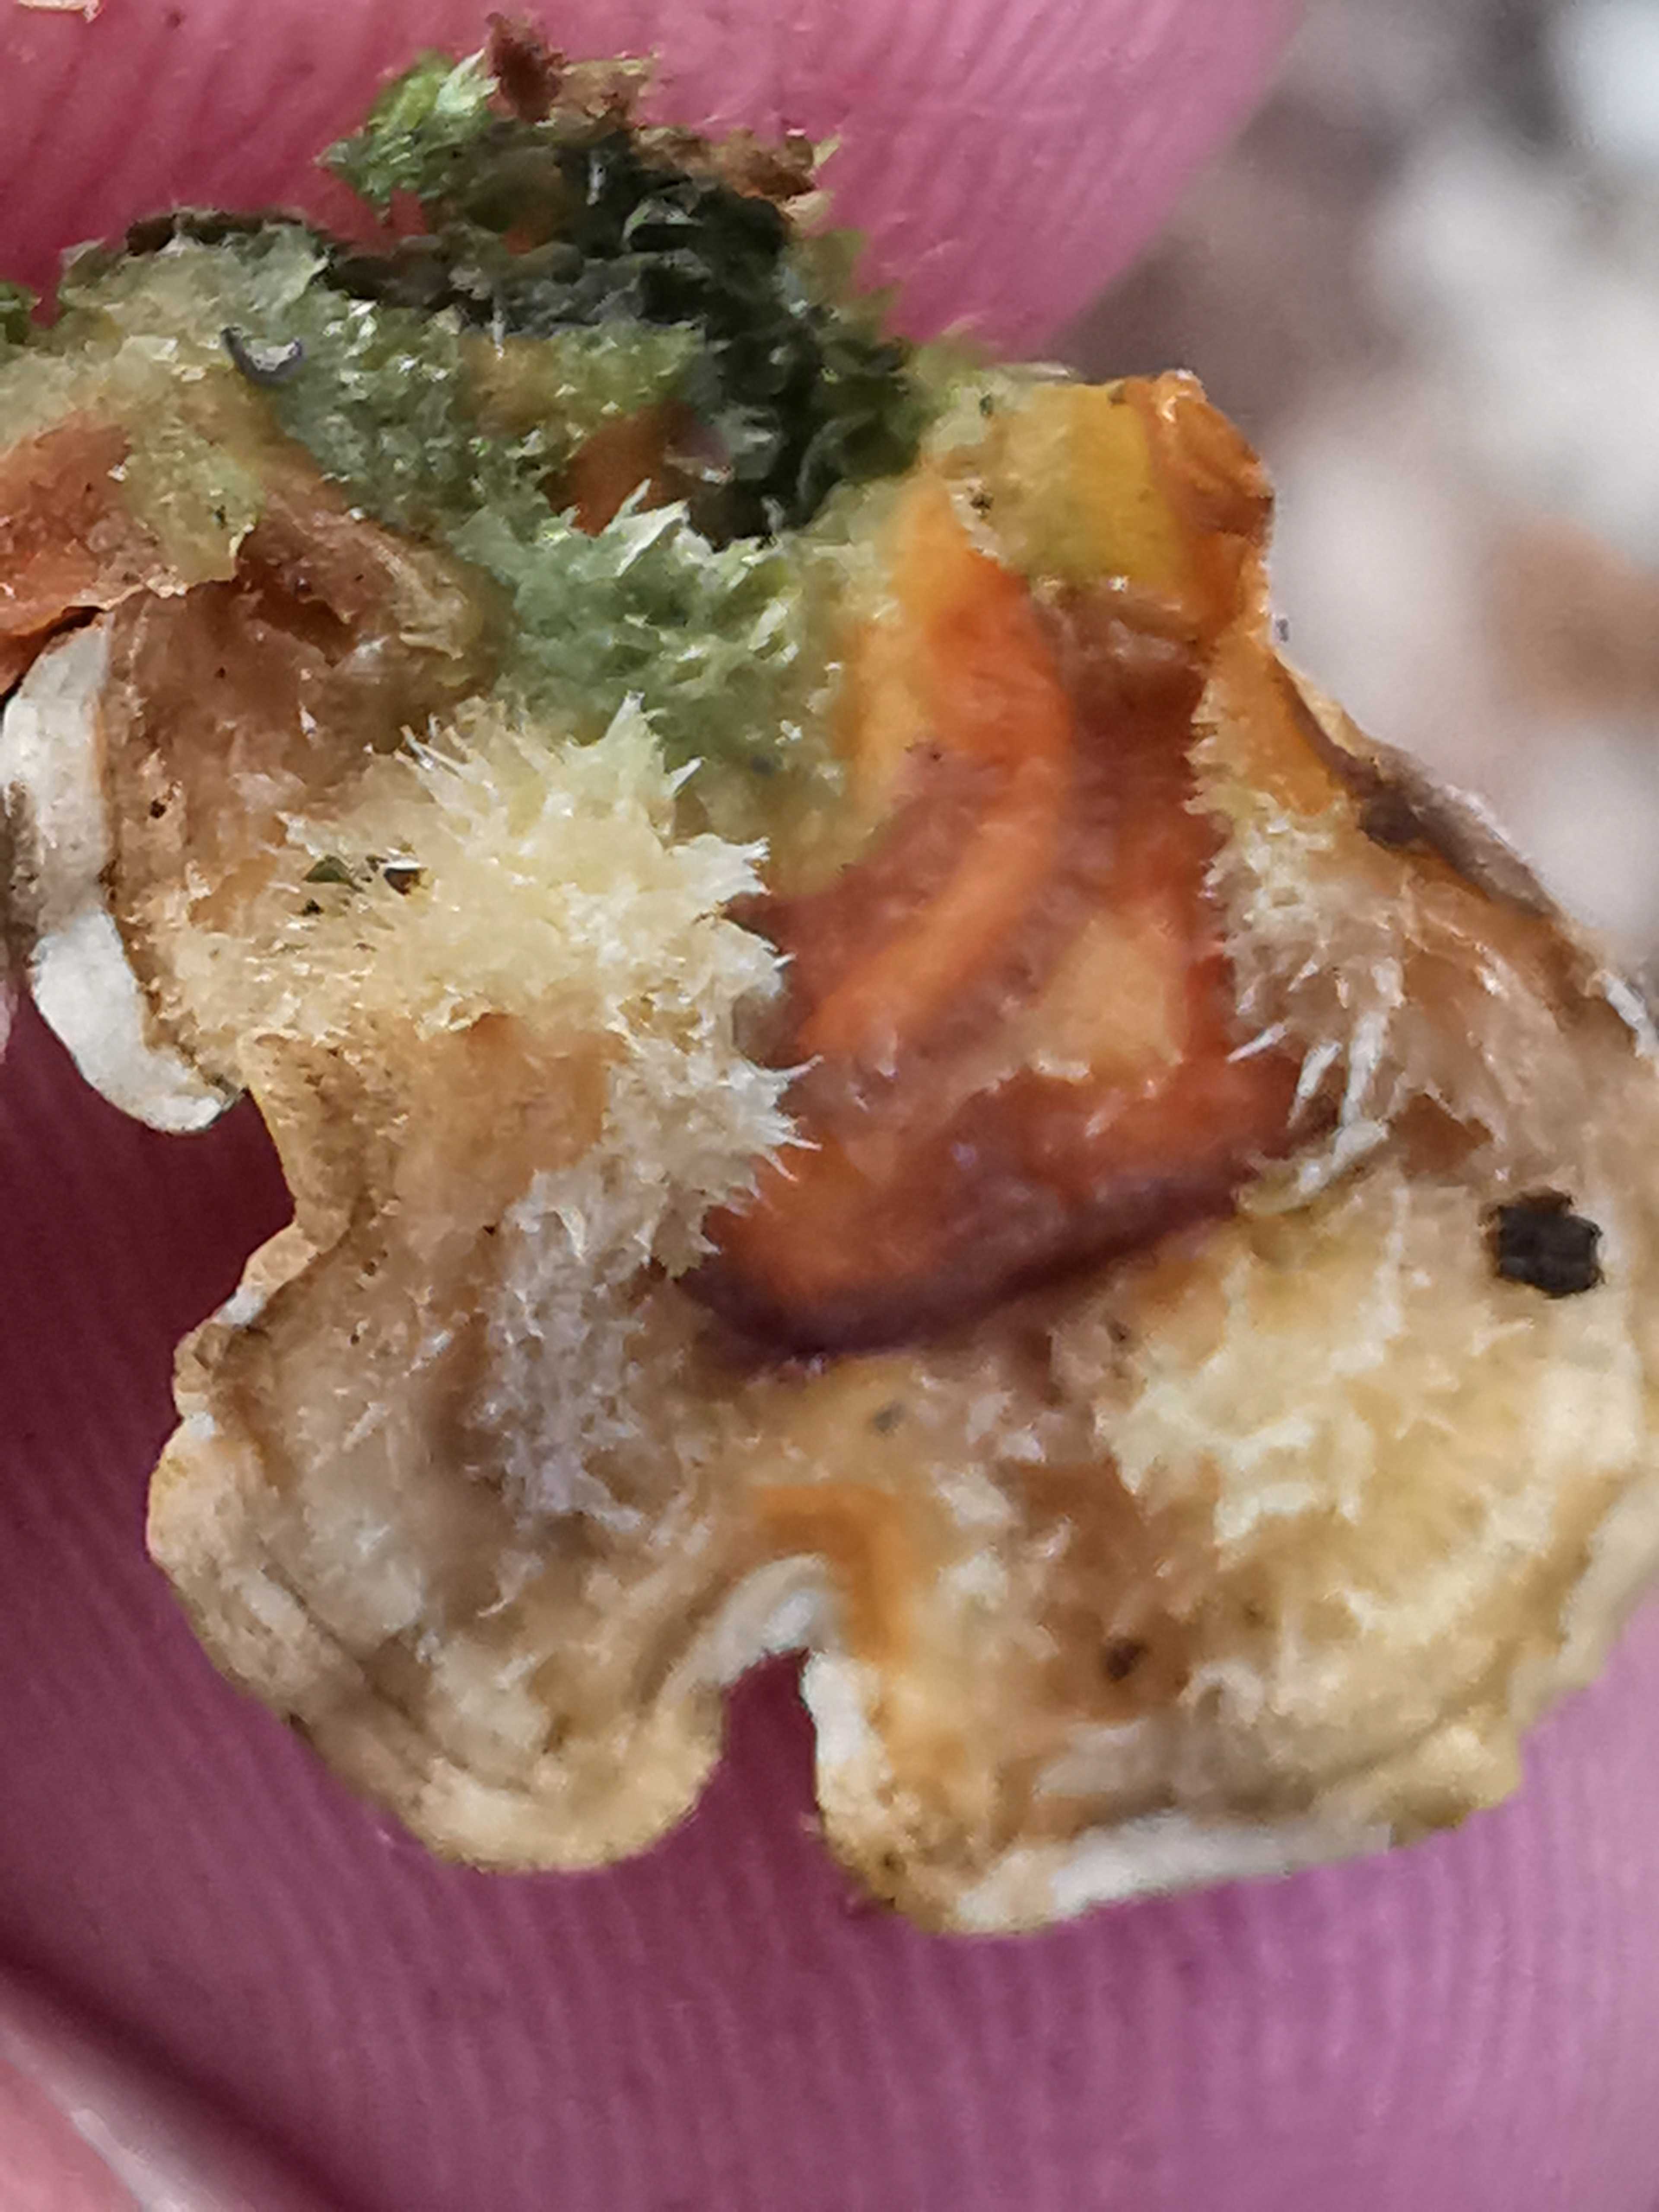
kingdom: Fungi
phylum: Basidiomycota
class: Agaricomycetes
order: Russulales
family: Stereaceae
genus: Stereum
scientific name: Stereum hirsutum
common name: håret lædersvamp
